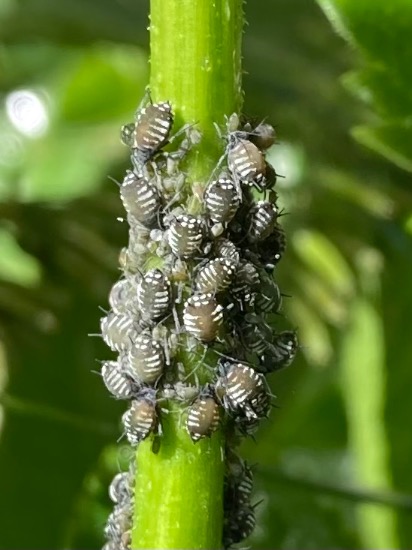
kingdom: Animalia
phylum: Arthropoda
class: Insecta
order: Hemiptera
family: Aphididae
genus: Aphis
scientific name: Aphis sambuci
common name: Hyldebladlus
